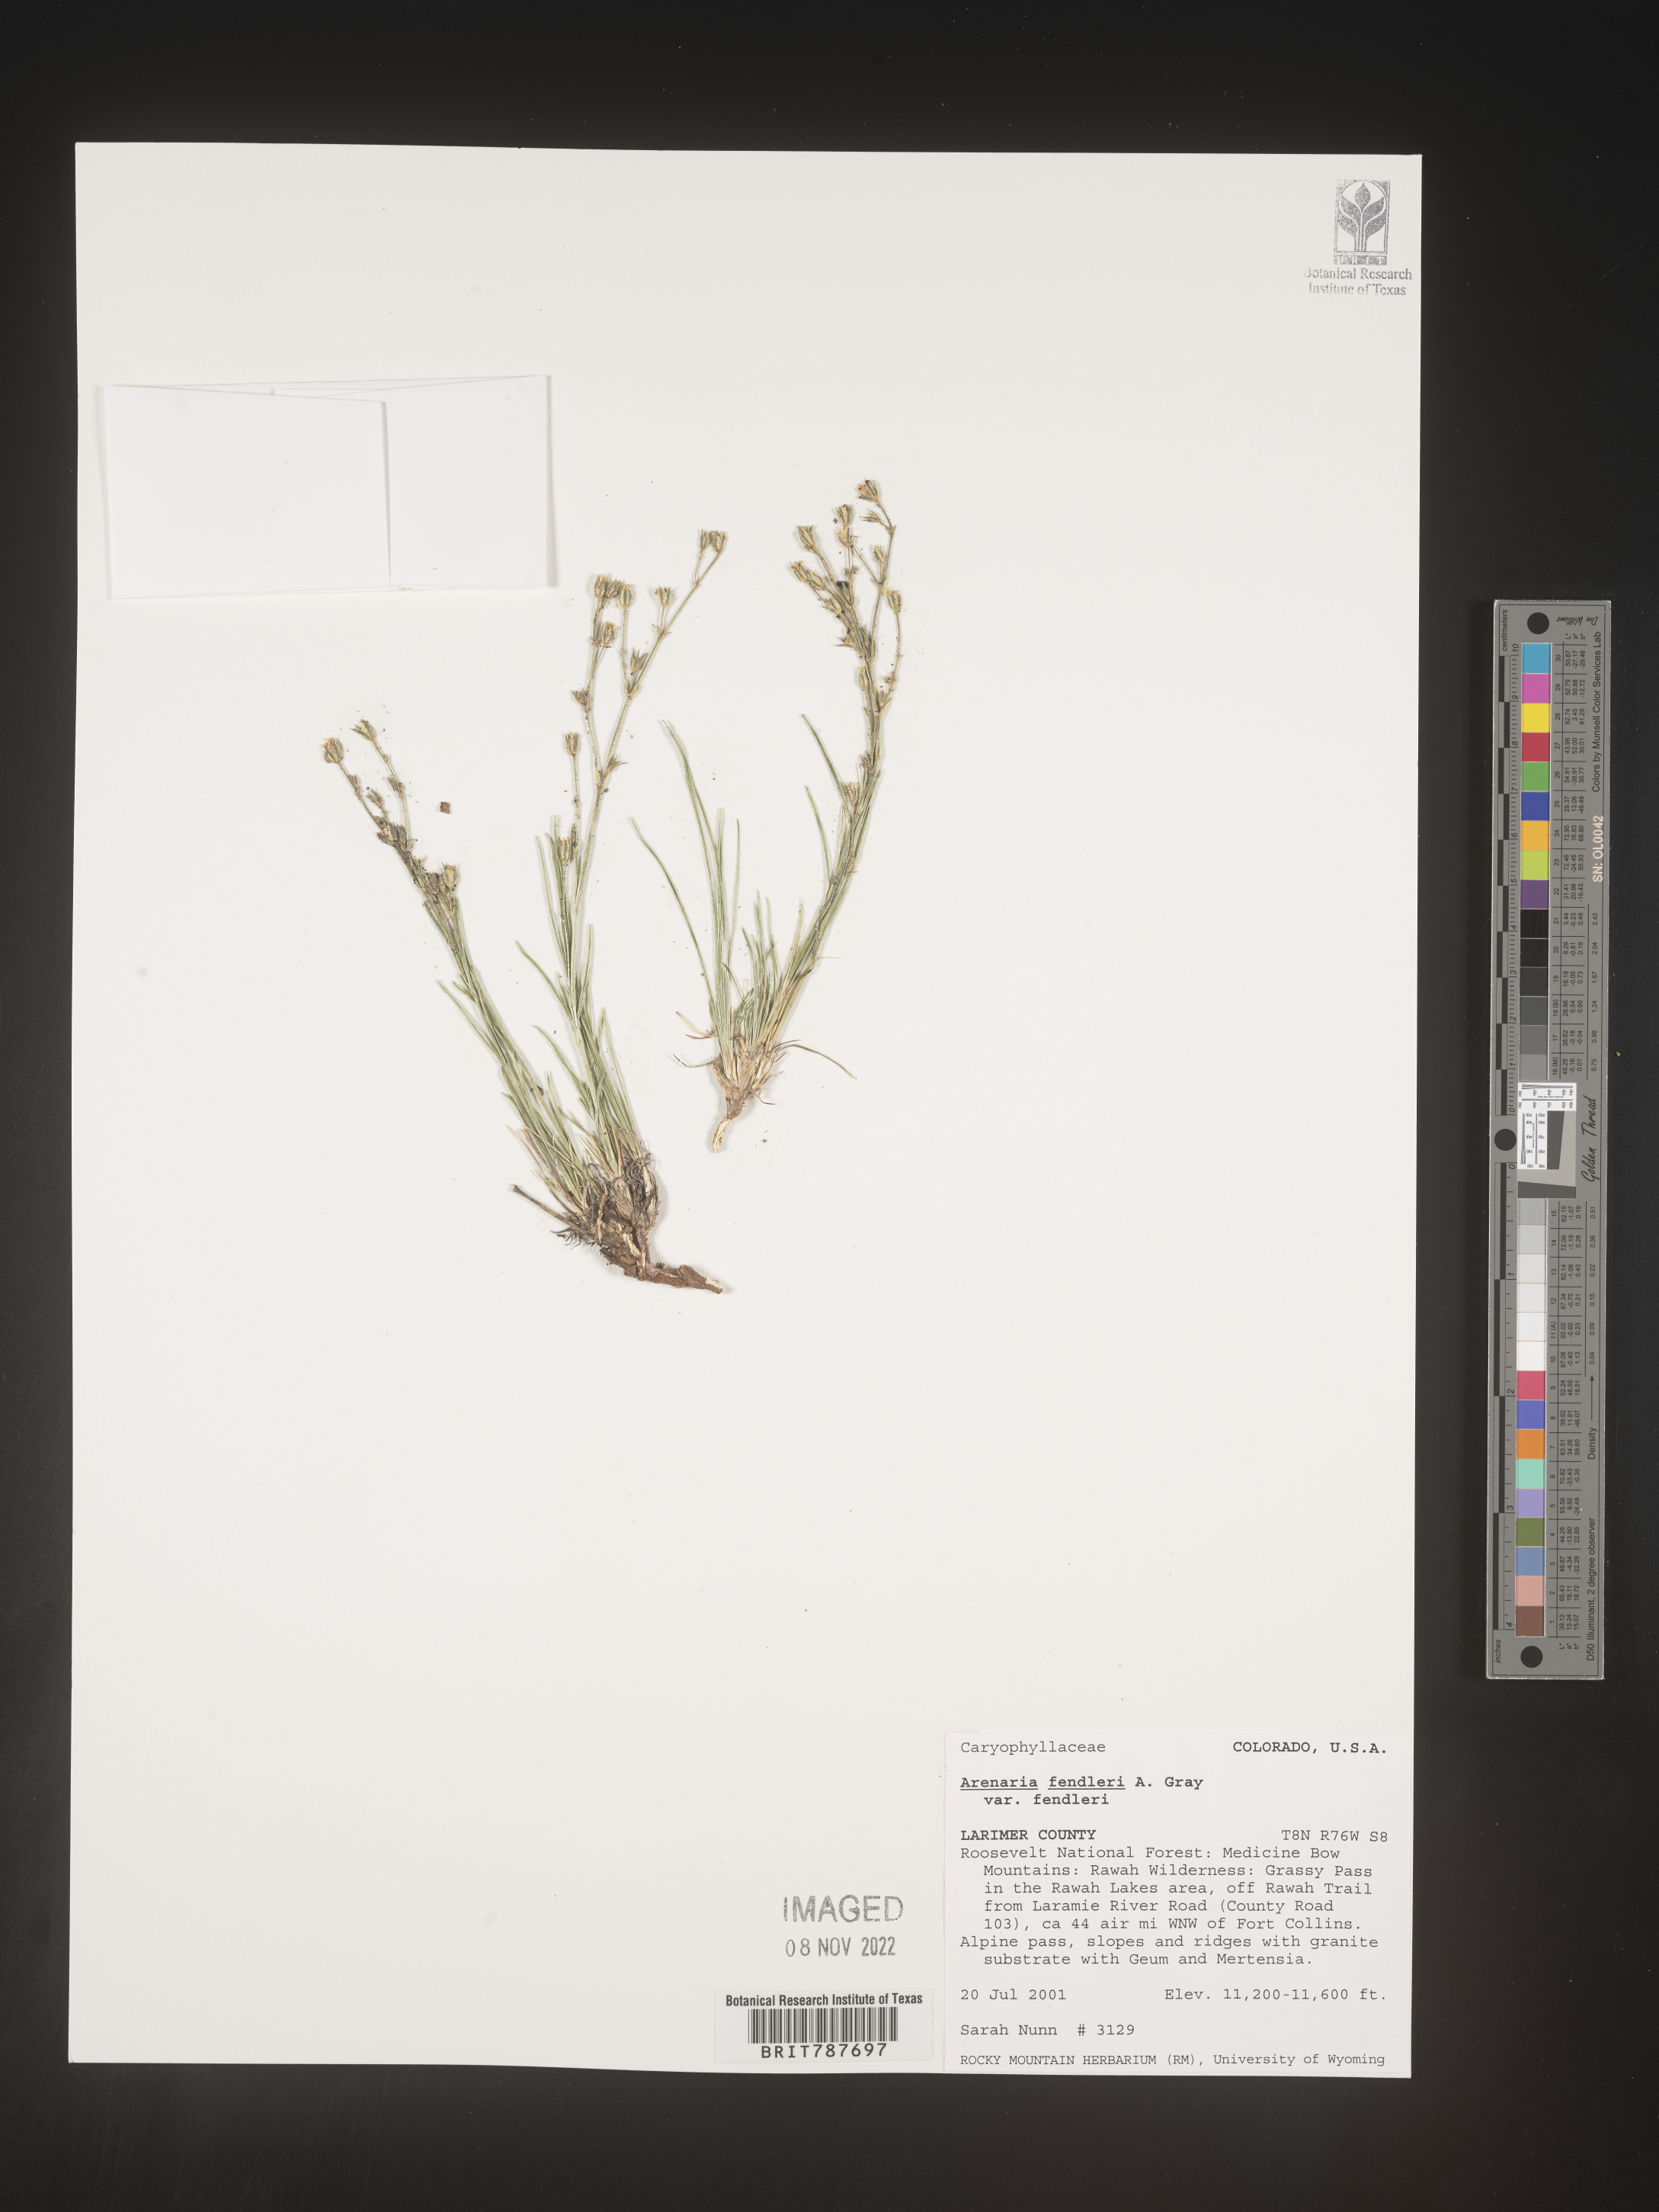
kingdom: Plantae
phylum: Tracheophyta
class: Magnoliopsida
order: Caryophyllales
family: Caryophyllaceae
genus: Arenaria
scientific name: Arenaria
